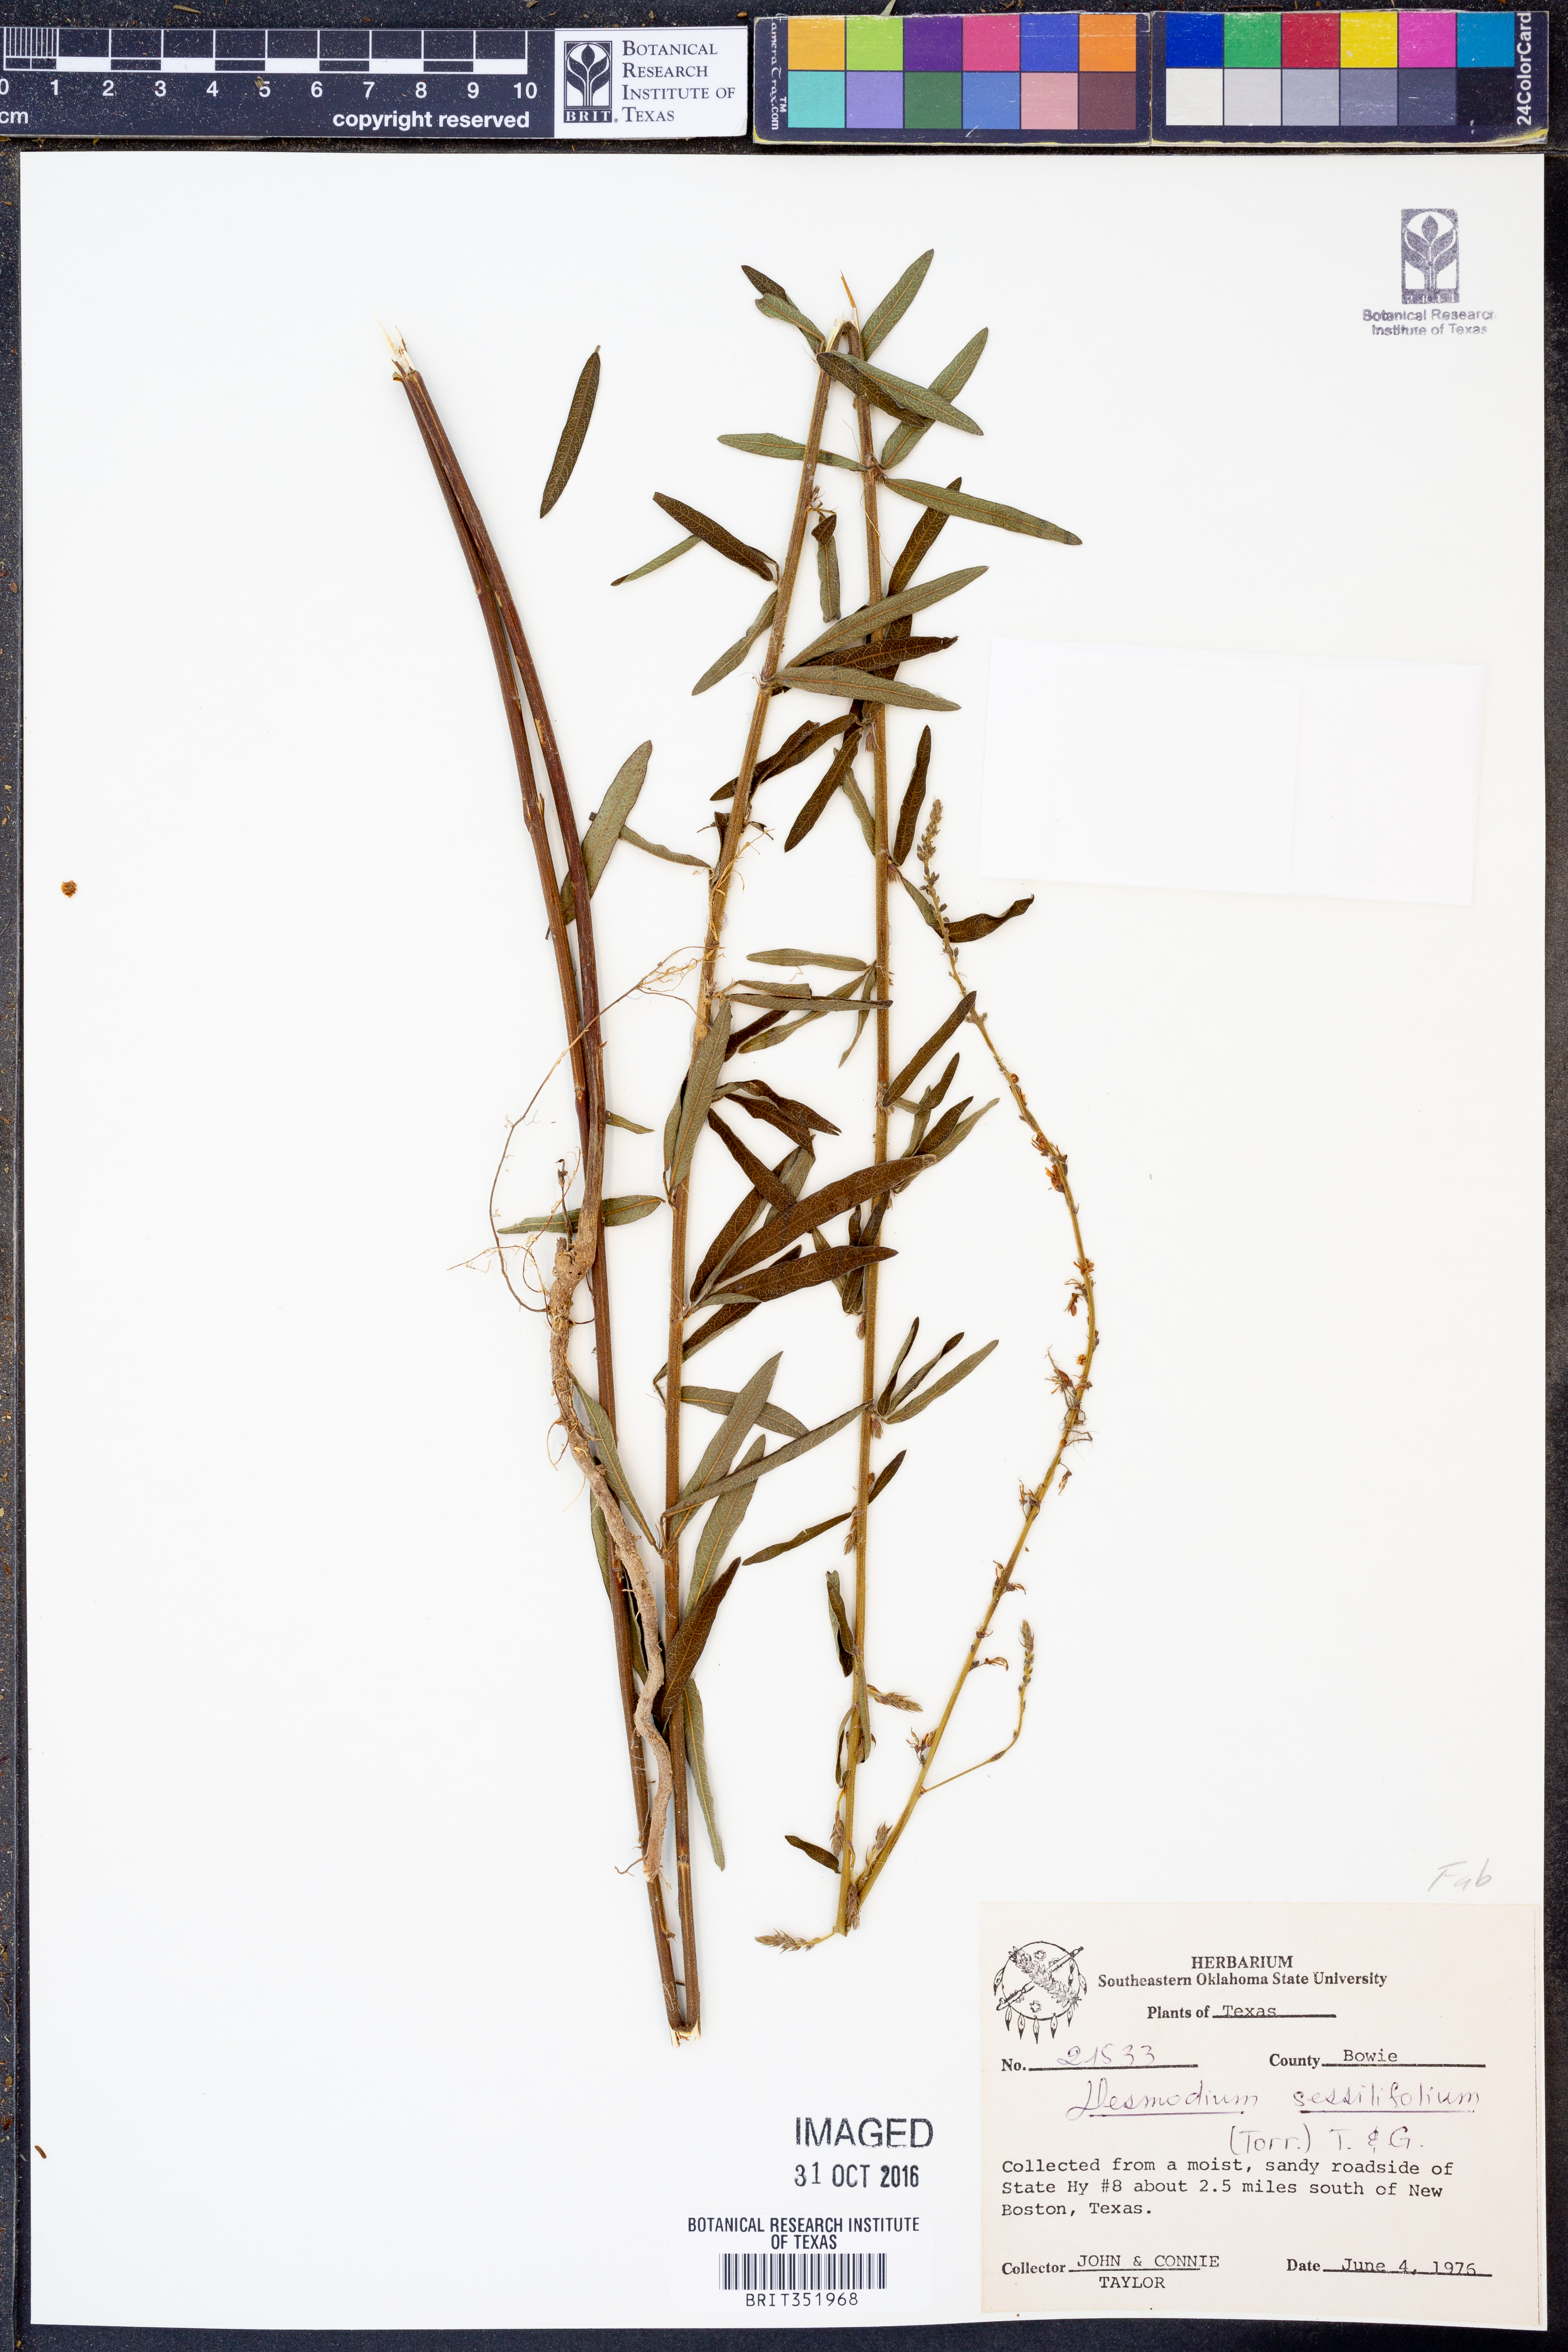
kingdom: Plantae
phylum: Tracheophyta
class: Magnoliopsida
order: Fabales
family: Fabaceae
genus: Desmodium
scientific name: Desmodium sessilifolium
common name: Sessile tick-clover
